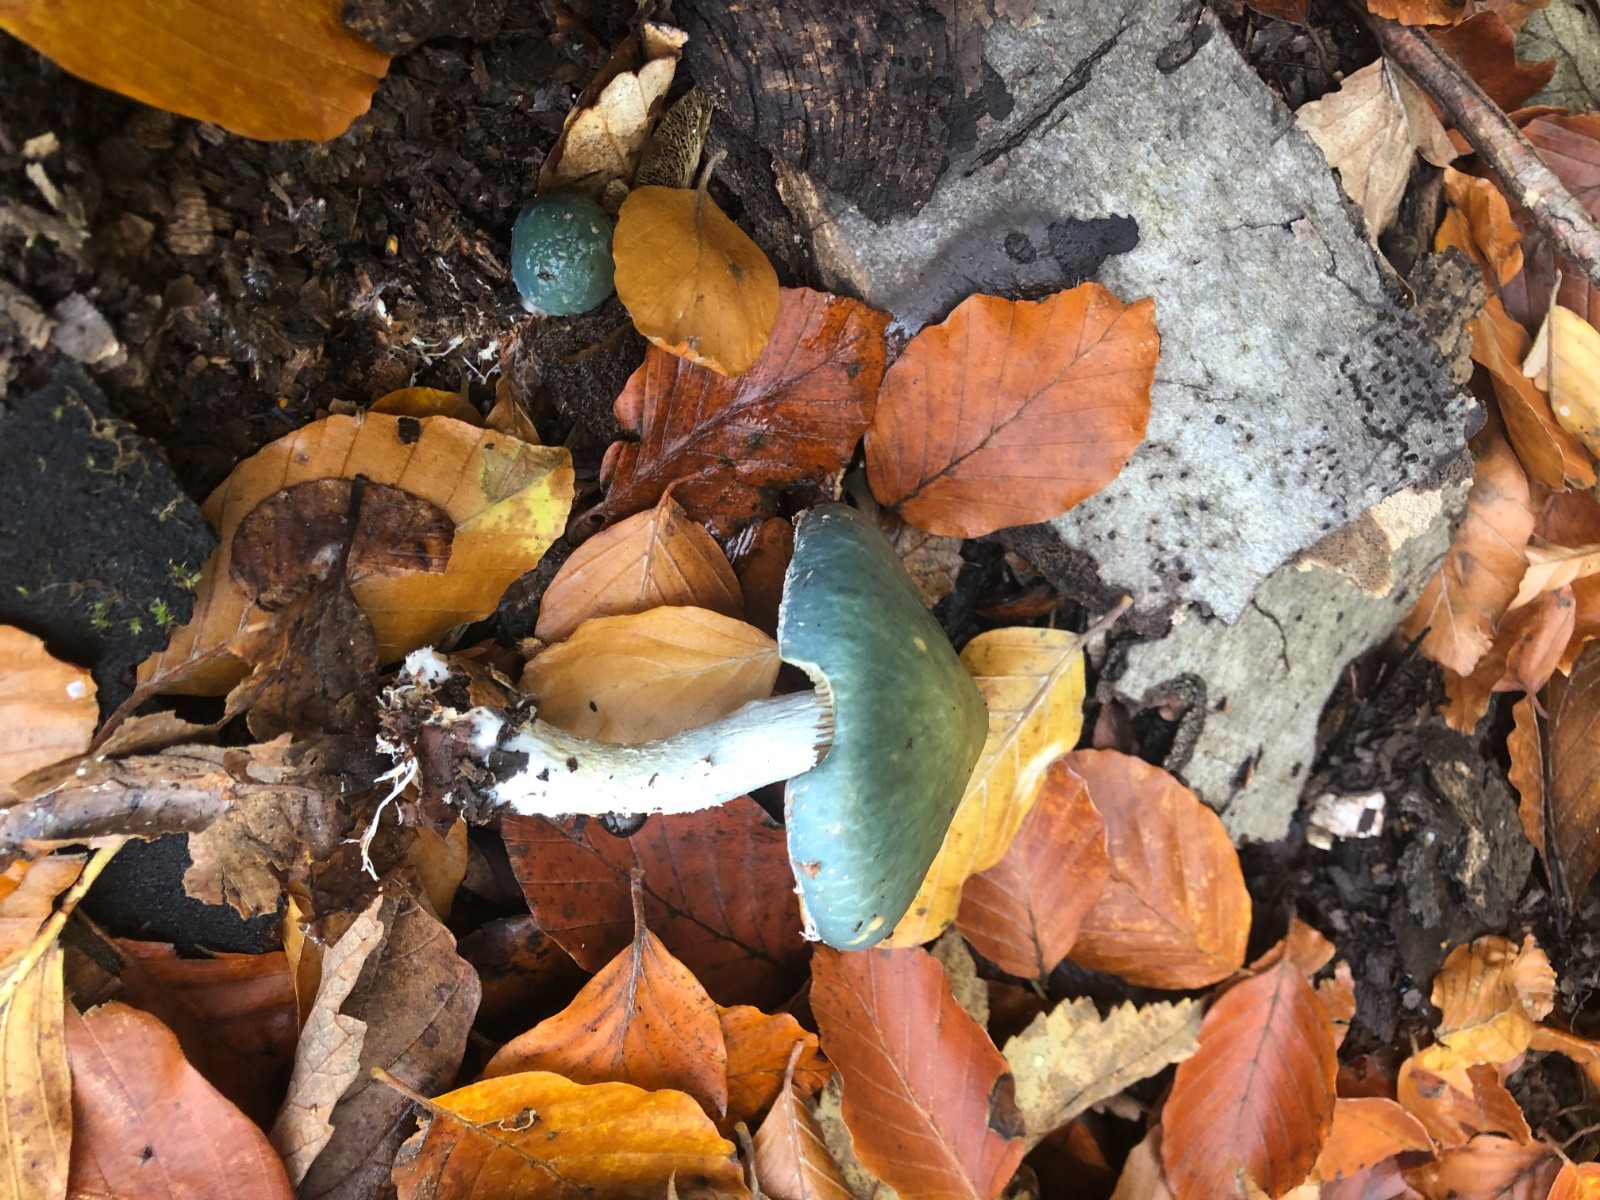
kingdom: Fungi
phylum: Basidiomycota
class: Agaricomycetes
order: Agaricales
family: Strophariaceae
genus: Stropharia
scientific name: Stropharia cyanea
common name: blågrøn bredblad
